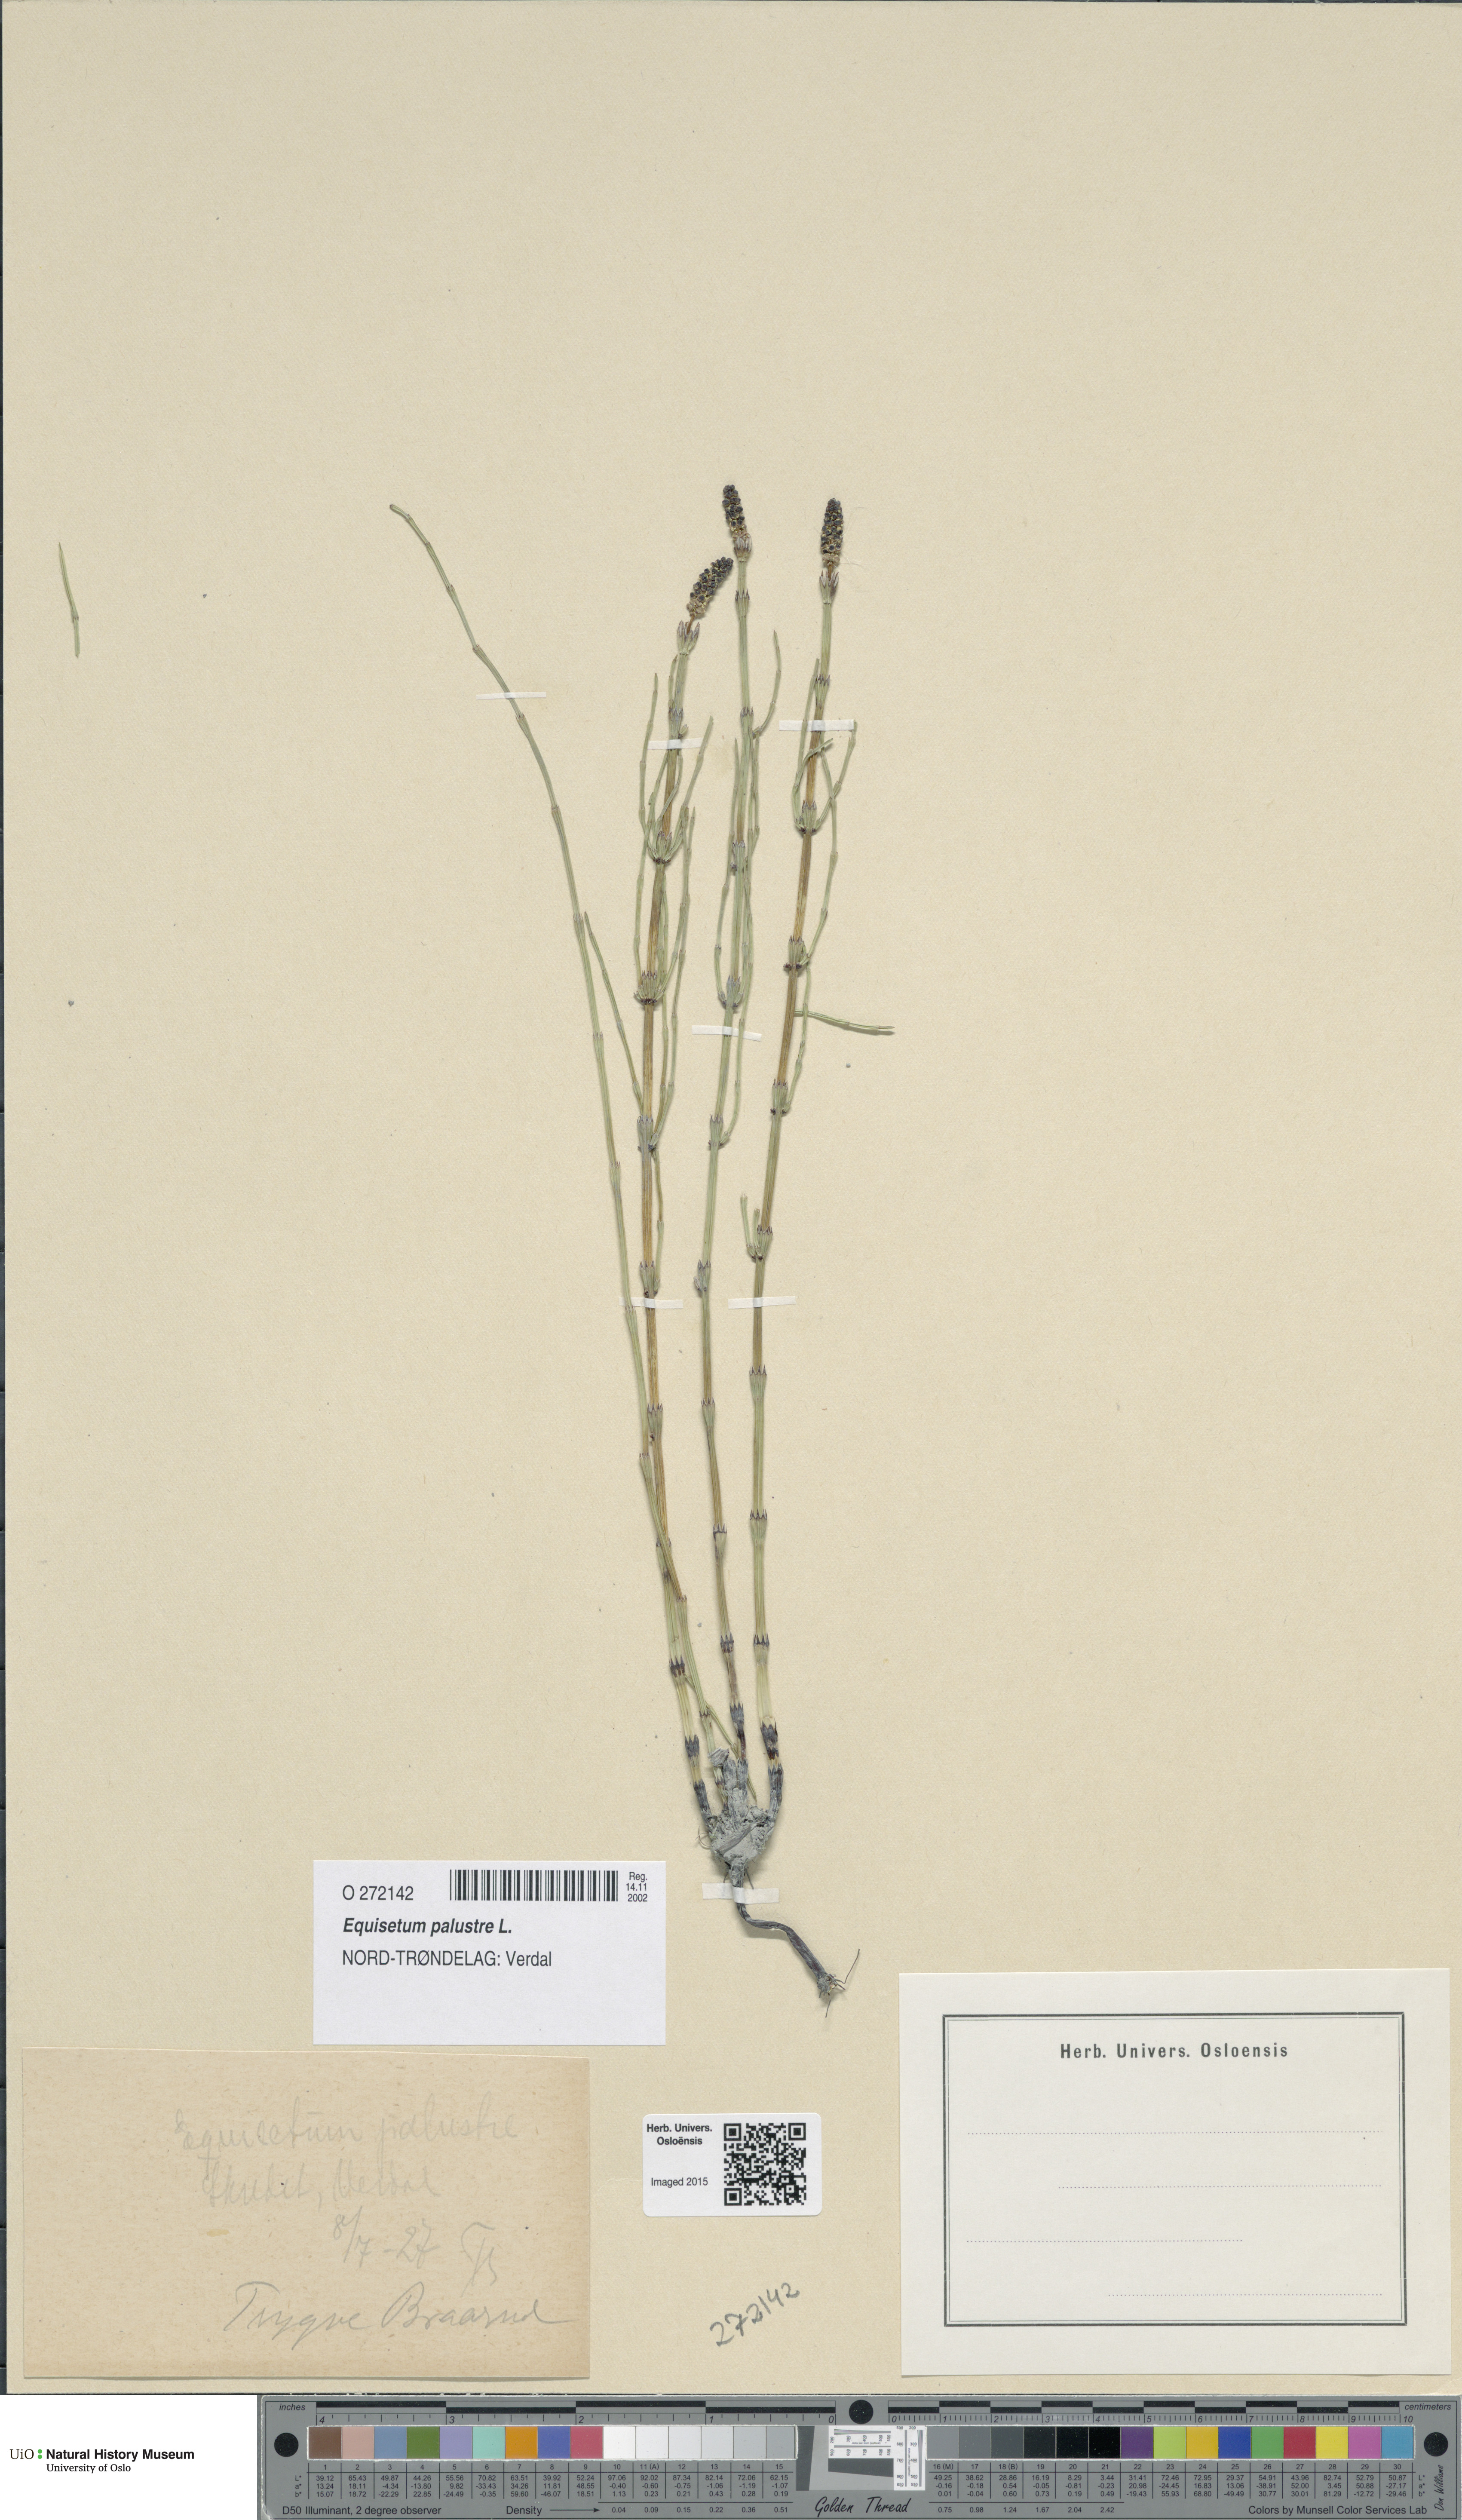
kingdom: Plantae
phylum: Tracheophyta
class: Polypodiopsida
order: Equisetales
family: Equisetaceae
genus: Equisetum
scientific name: Equisetum palustre
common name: Marsh horsetail
